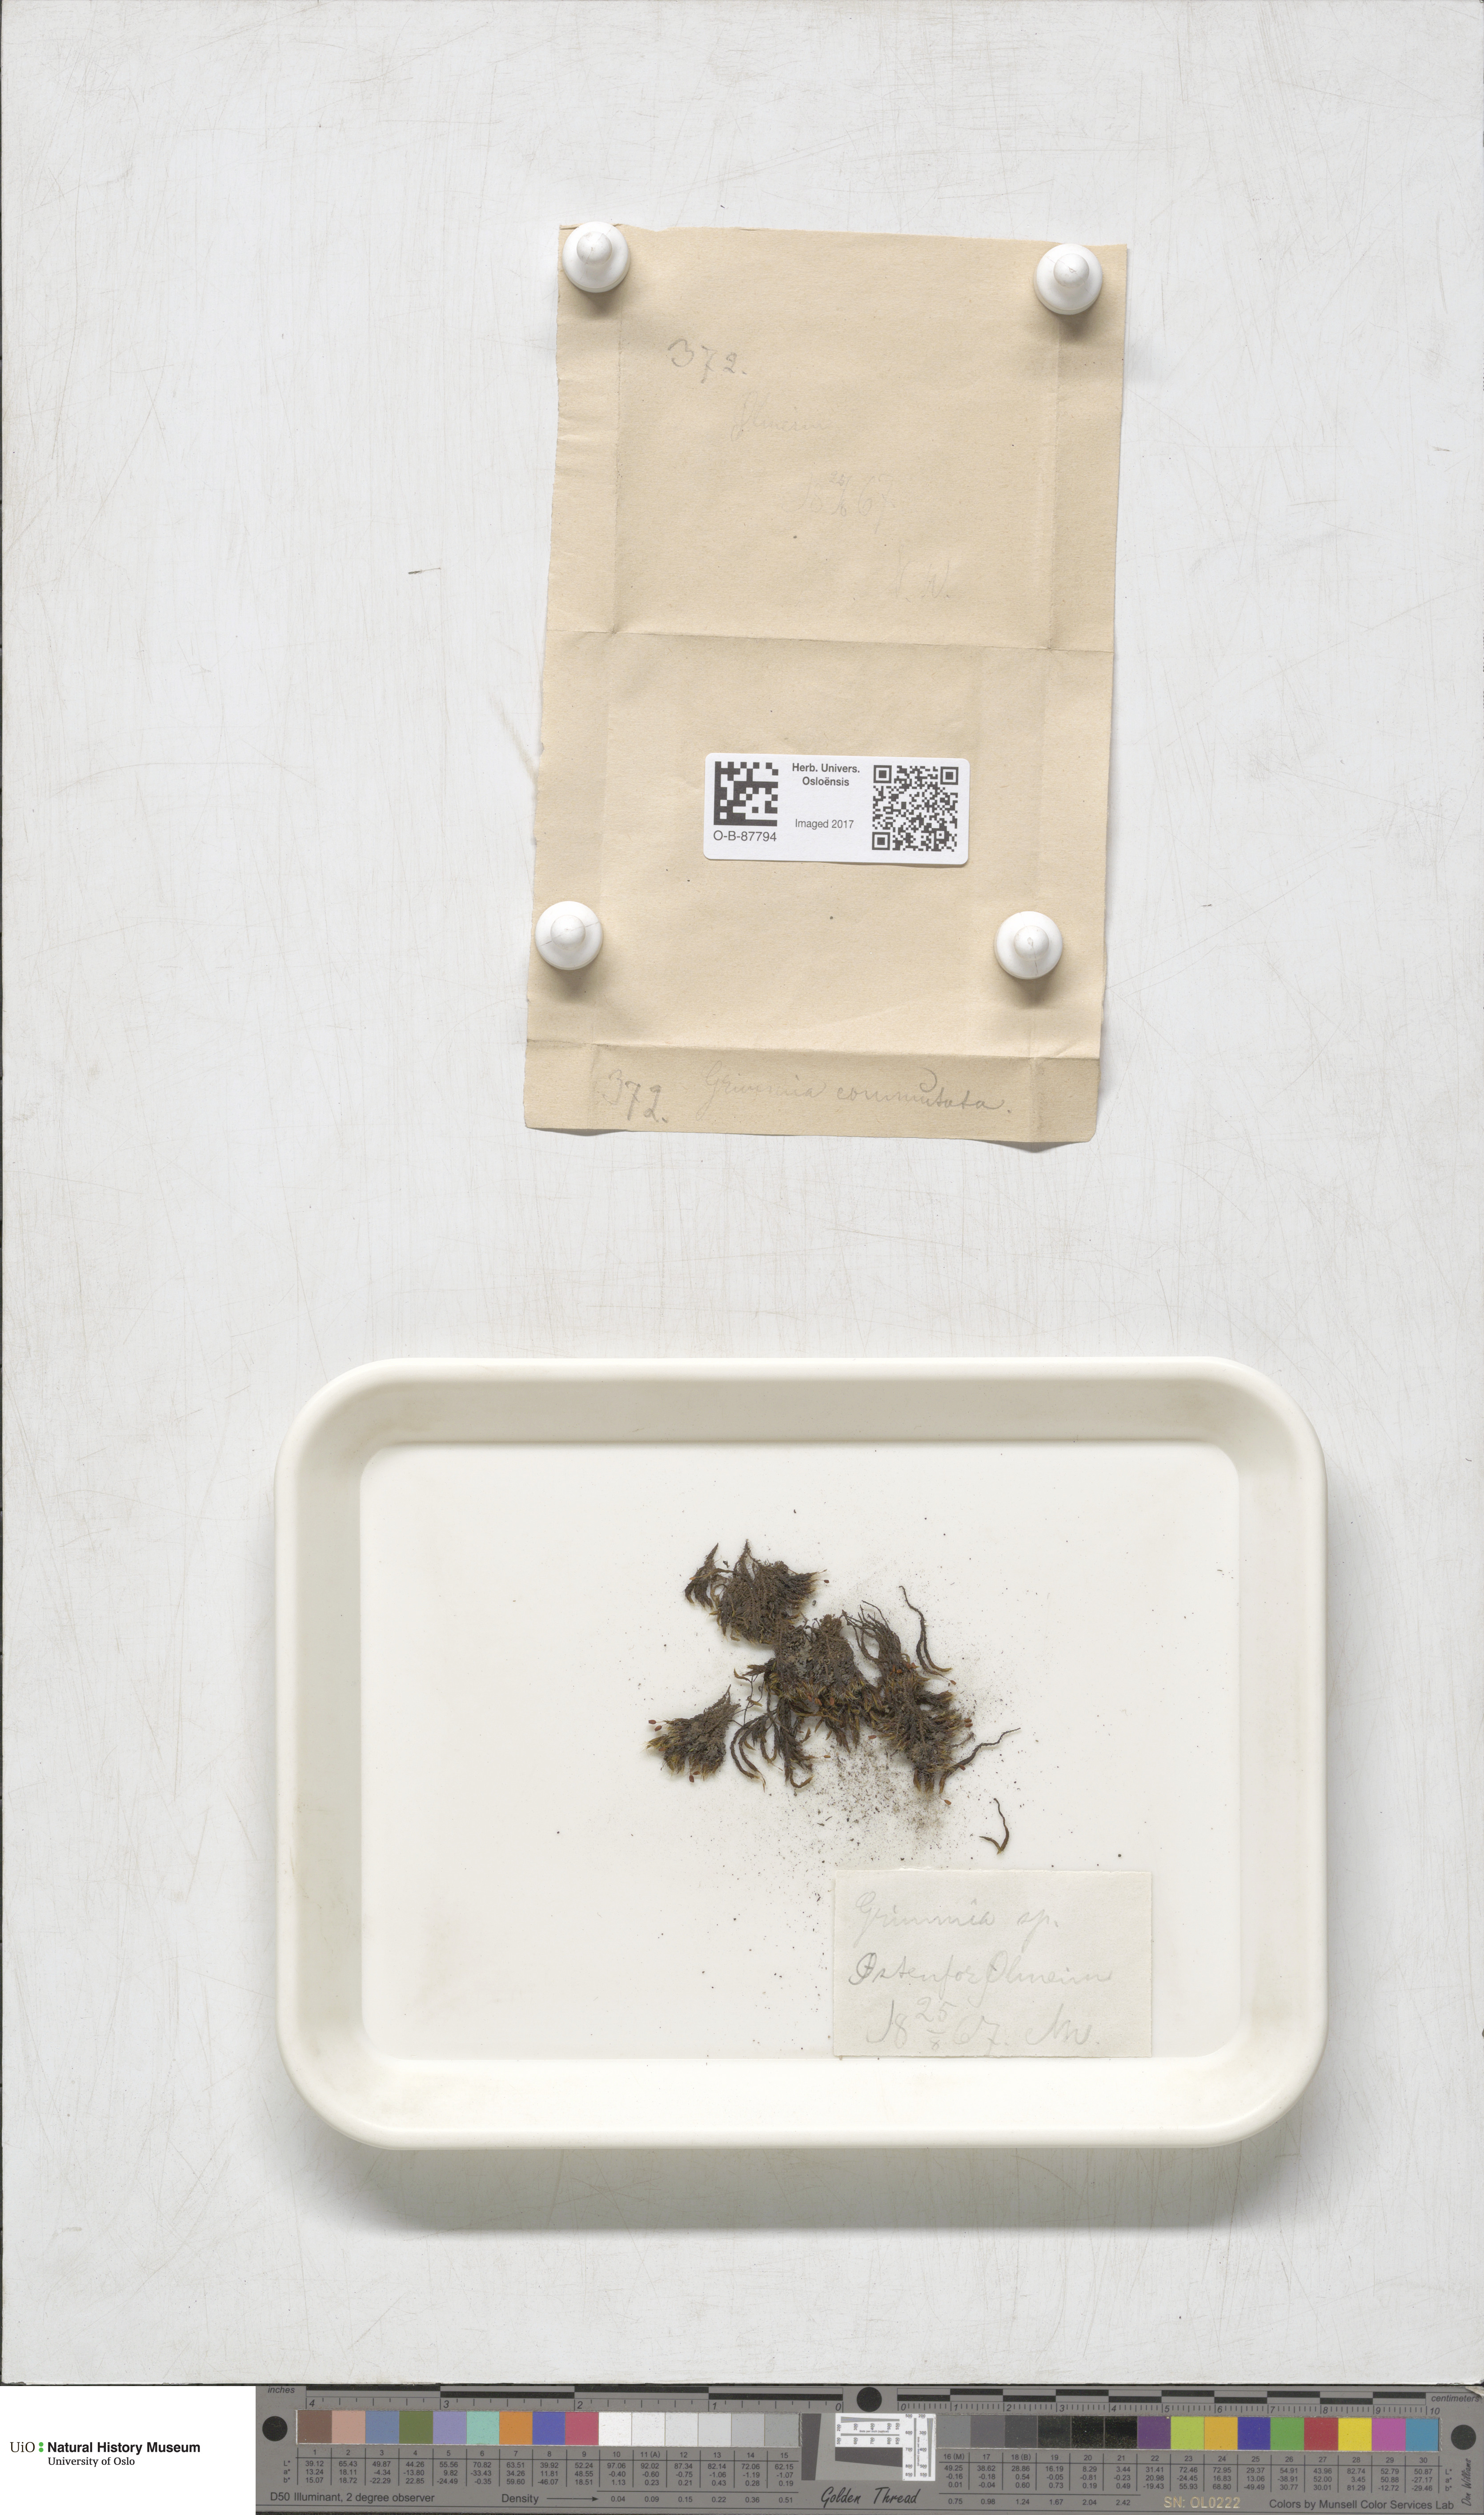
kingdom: Plantae
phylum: Bryophyta
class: Bryopsida
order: Grimmiales
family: Grimmiaceae
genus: Grimmia
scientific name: Grimmia ovalis
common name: Oval grimmia
